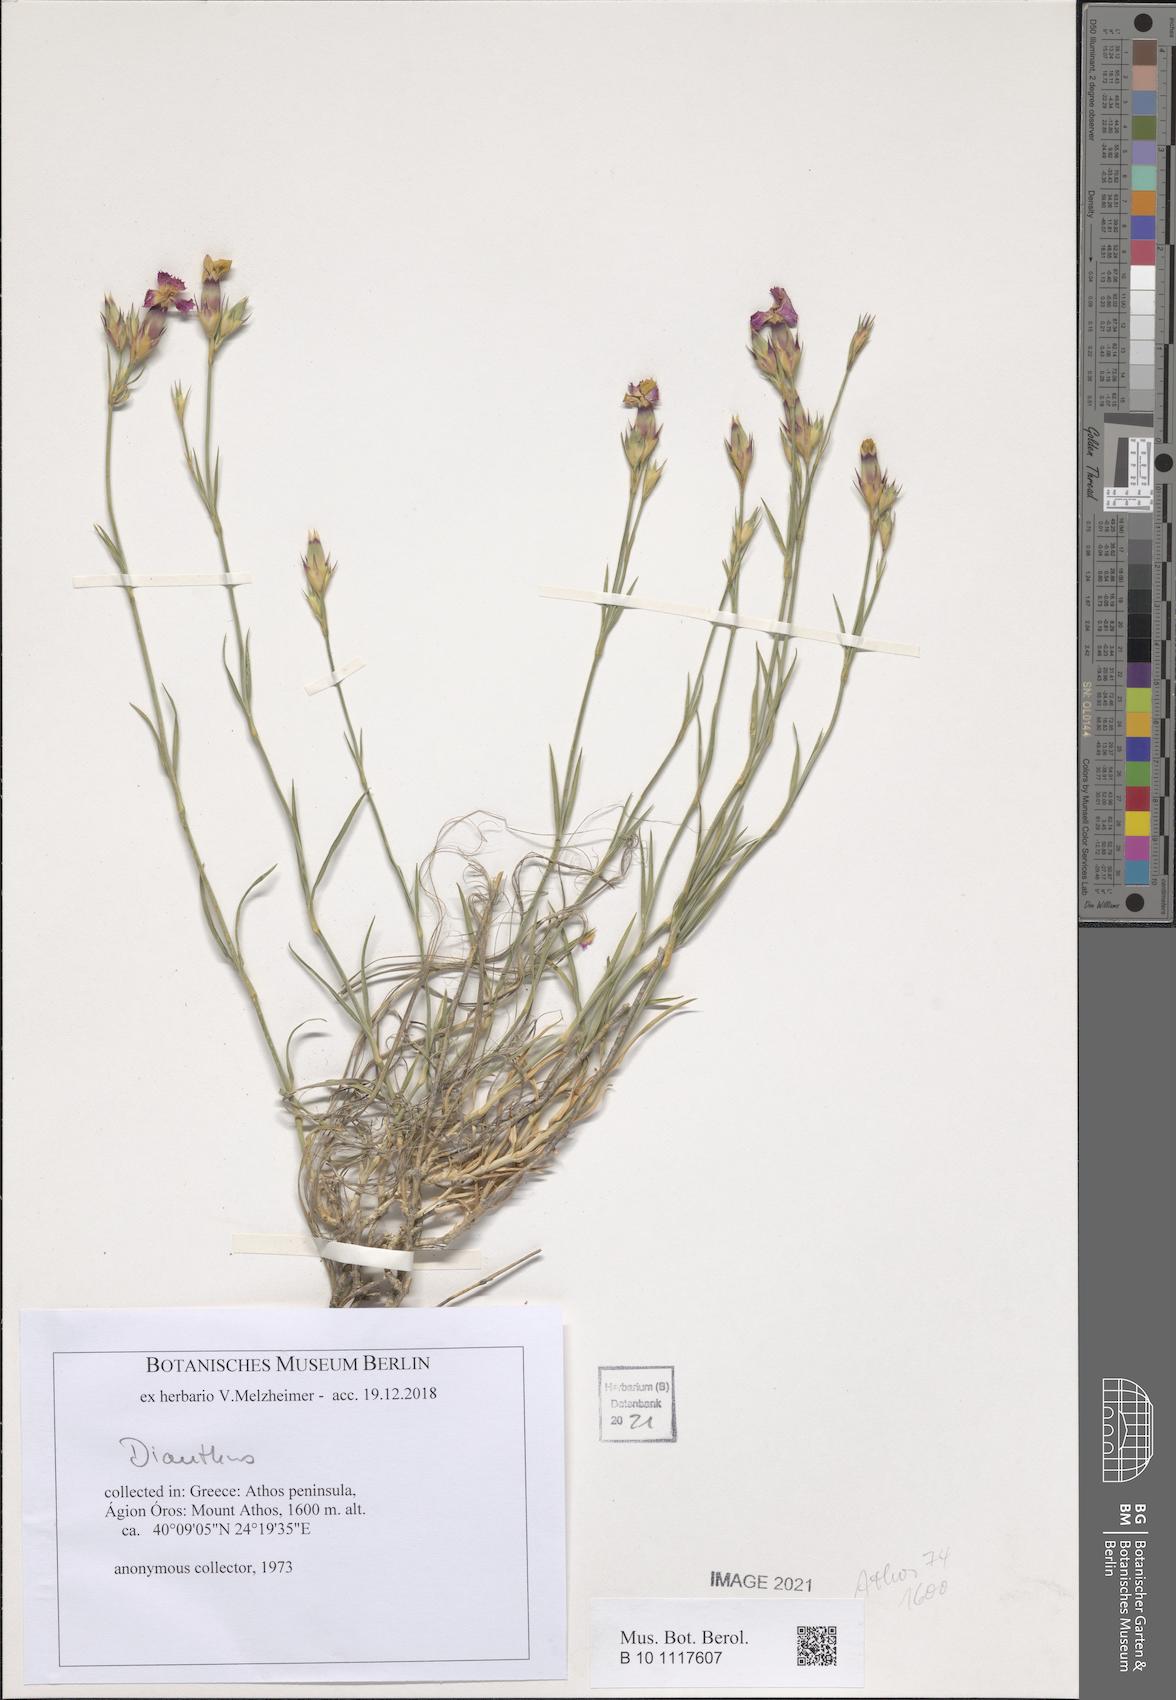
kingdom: Plantae
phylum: Tracheophyta
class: Magnoliopsida
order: Caryophyllales
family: Caryophyllaceae
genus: Dianthus
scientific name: Dianthus
